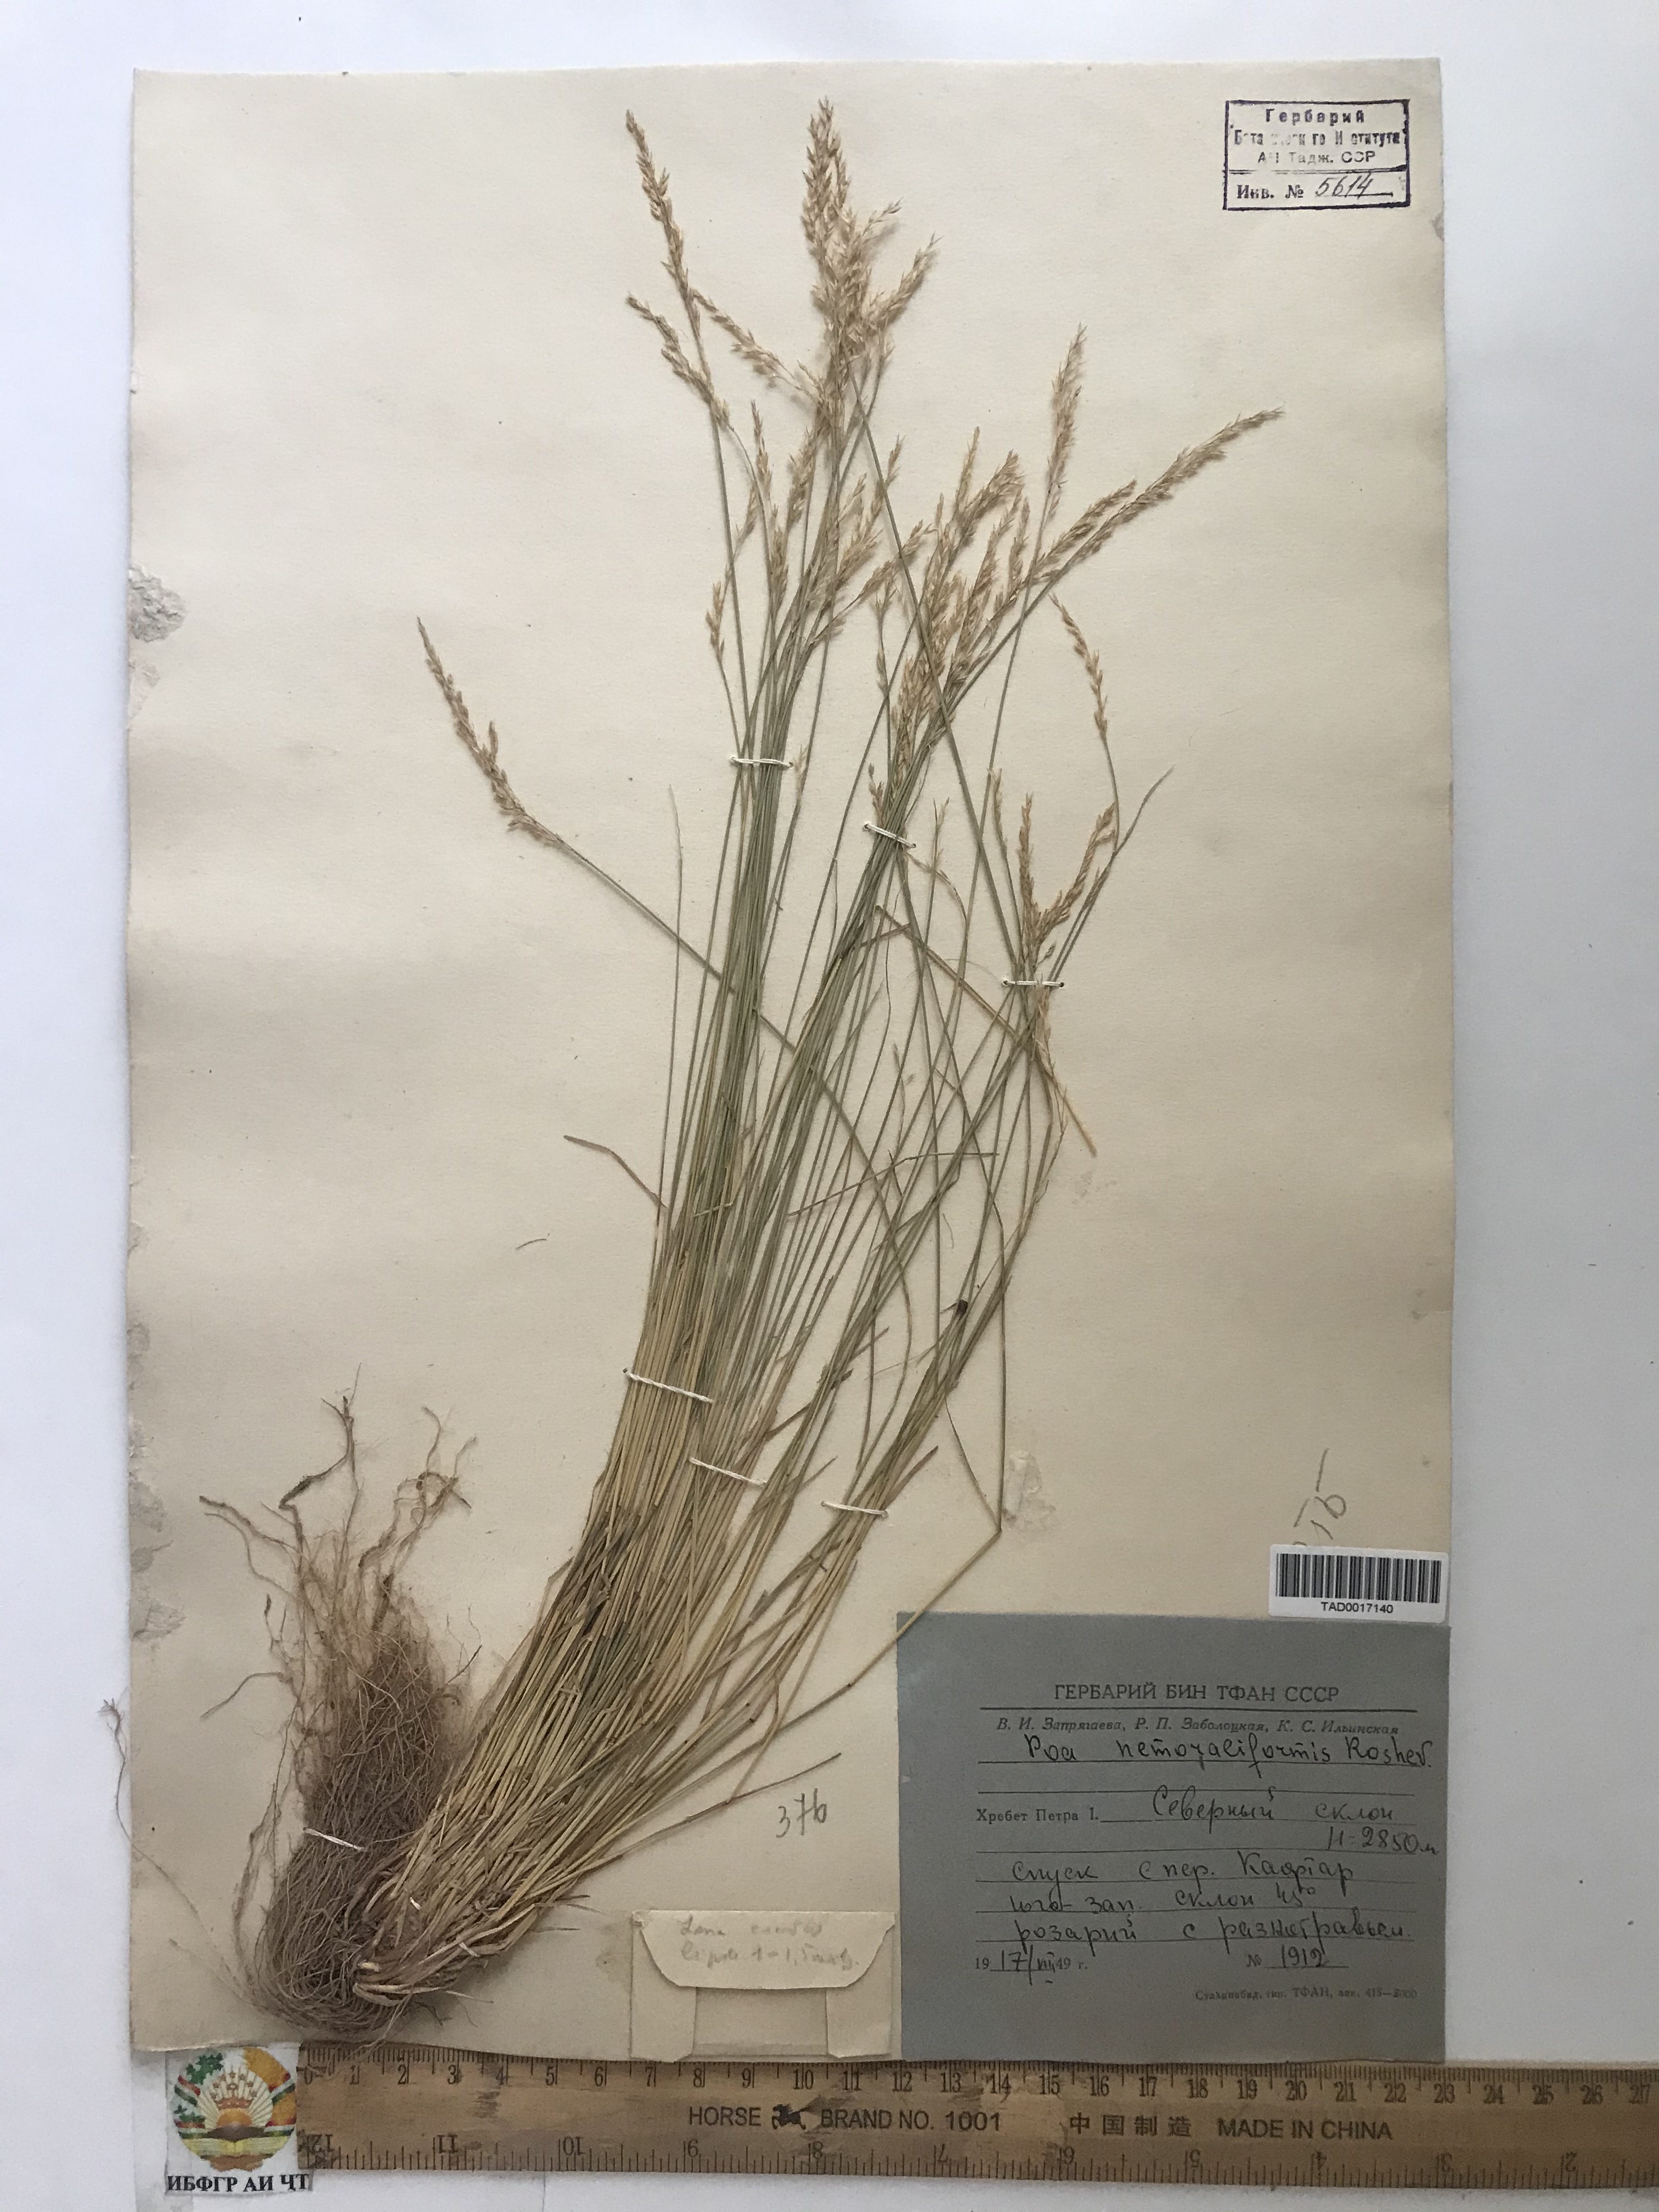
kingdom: Plantae
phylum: Tracheophyta
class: Liliopsida
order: Poales
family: Poaceae
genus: Poa
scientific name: Poa urssulensis
